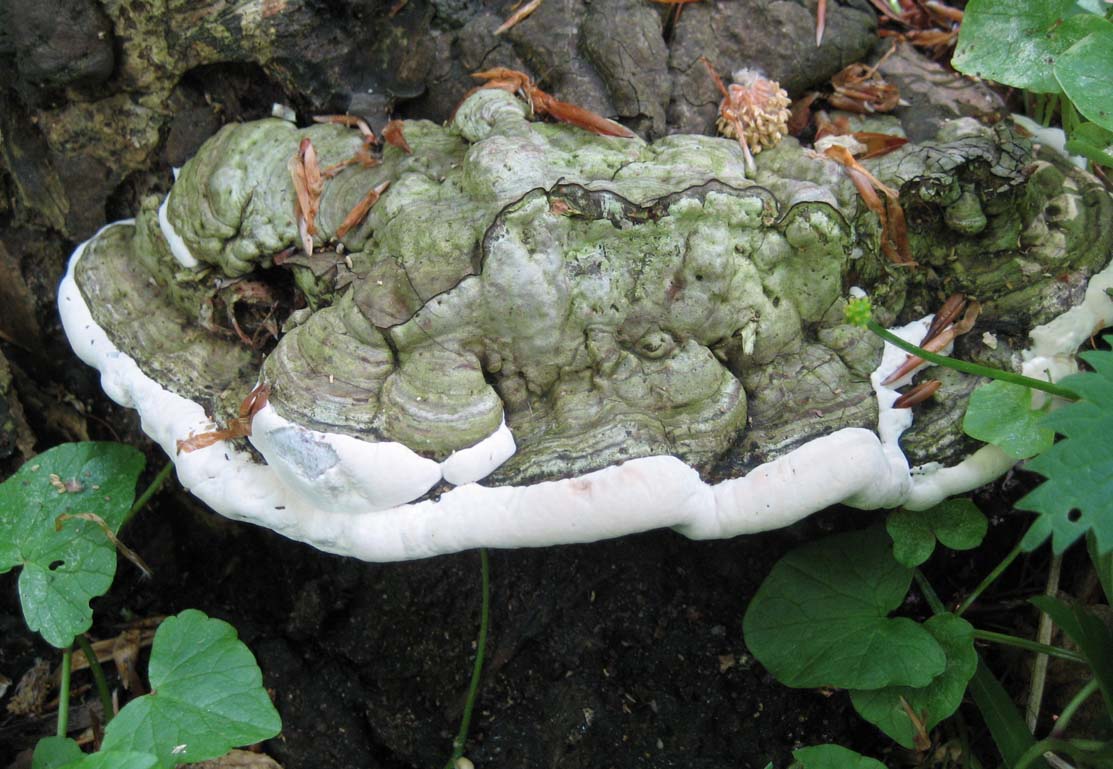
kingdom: Fungi
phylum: Basidiomycota
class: Agaricomycetes
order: Polyporales
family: Polyporaceae
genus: Ganoderma
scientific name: Ganoderma adspersum
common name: grov lakporesvamp
